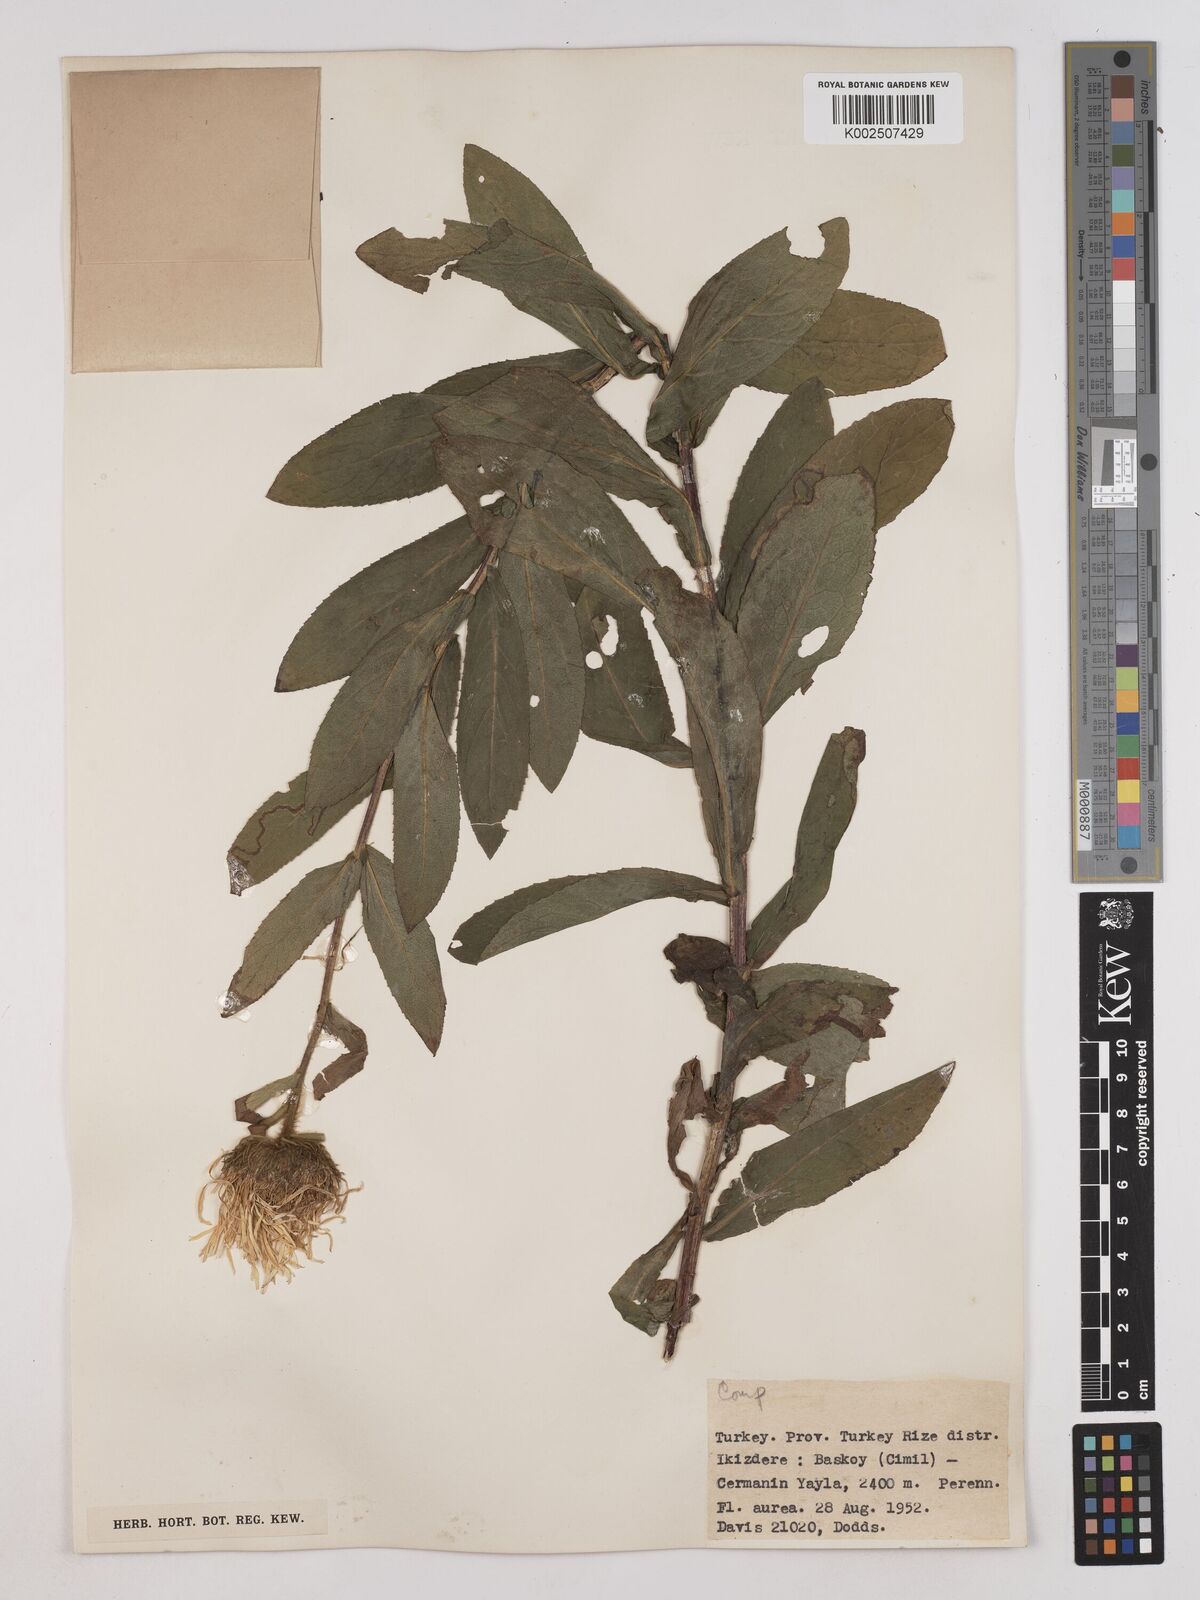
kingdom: Plantae
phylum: Tracheophyta
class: Magnoliopsida
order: Asterales
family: Asteraceae
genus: Pentanema
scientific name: Pentanema orientale
